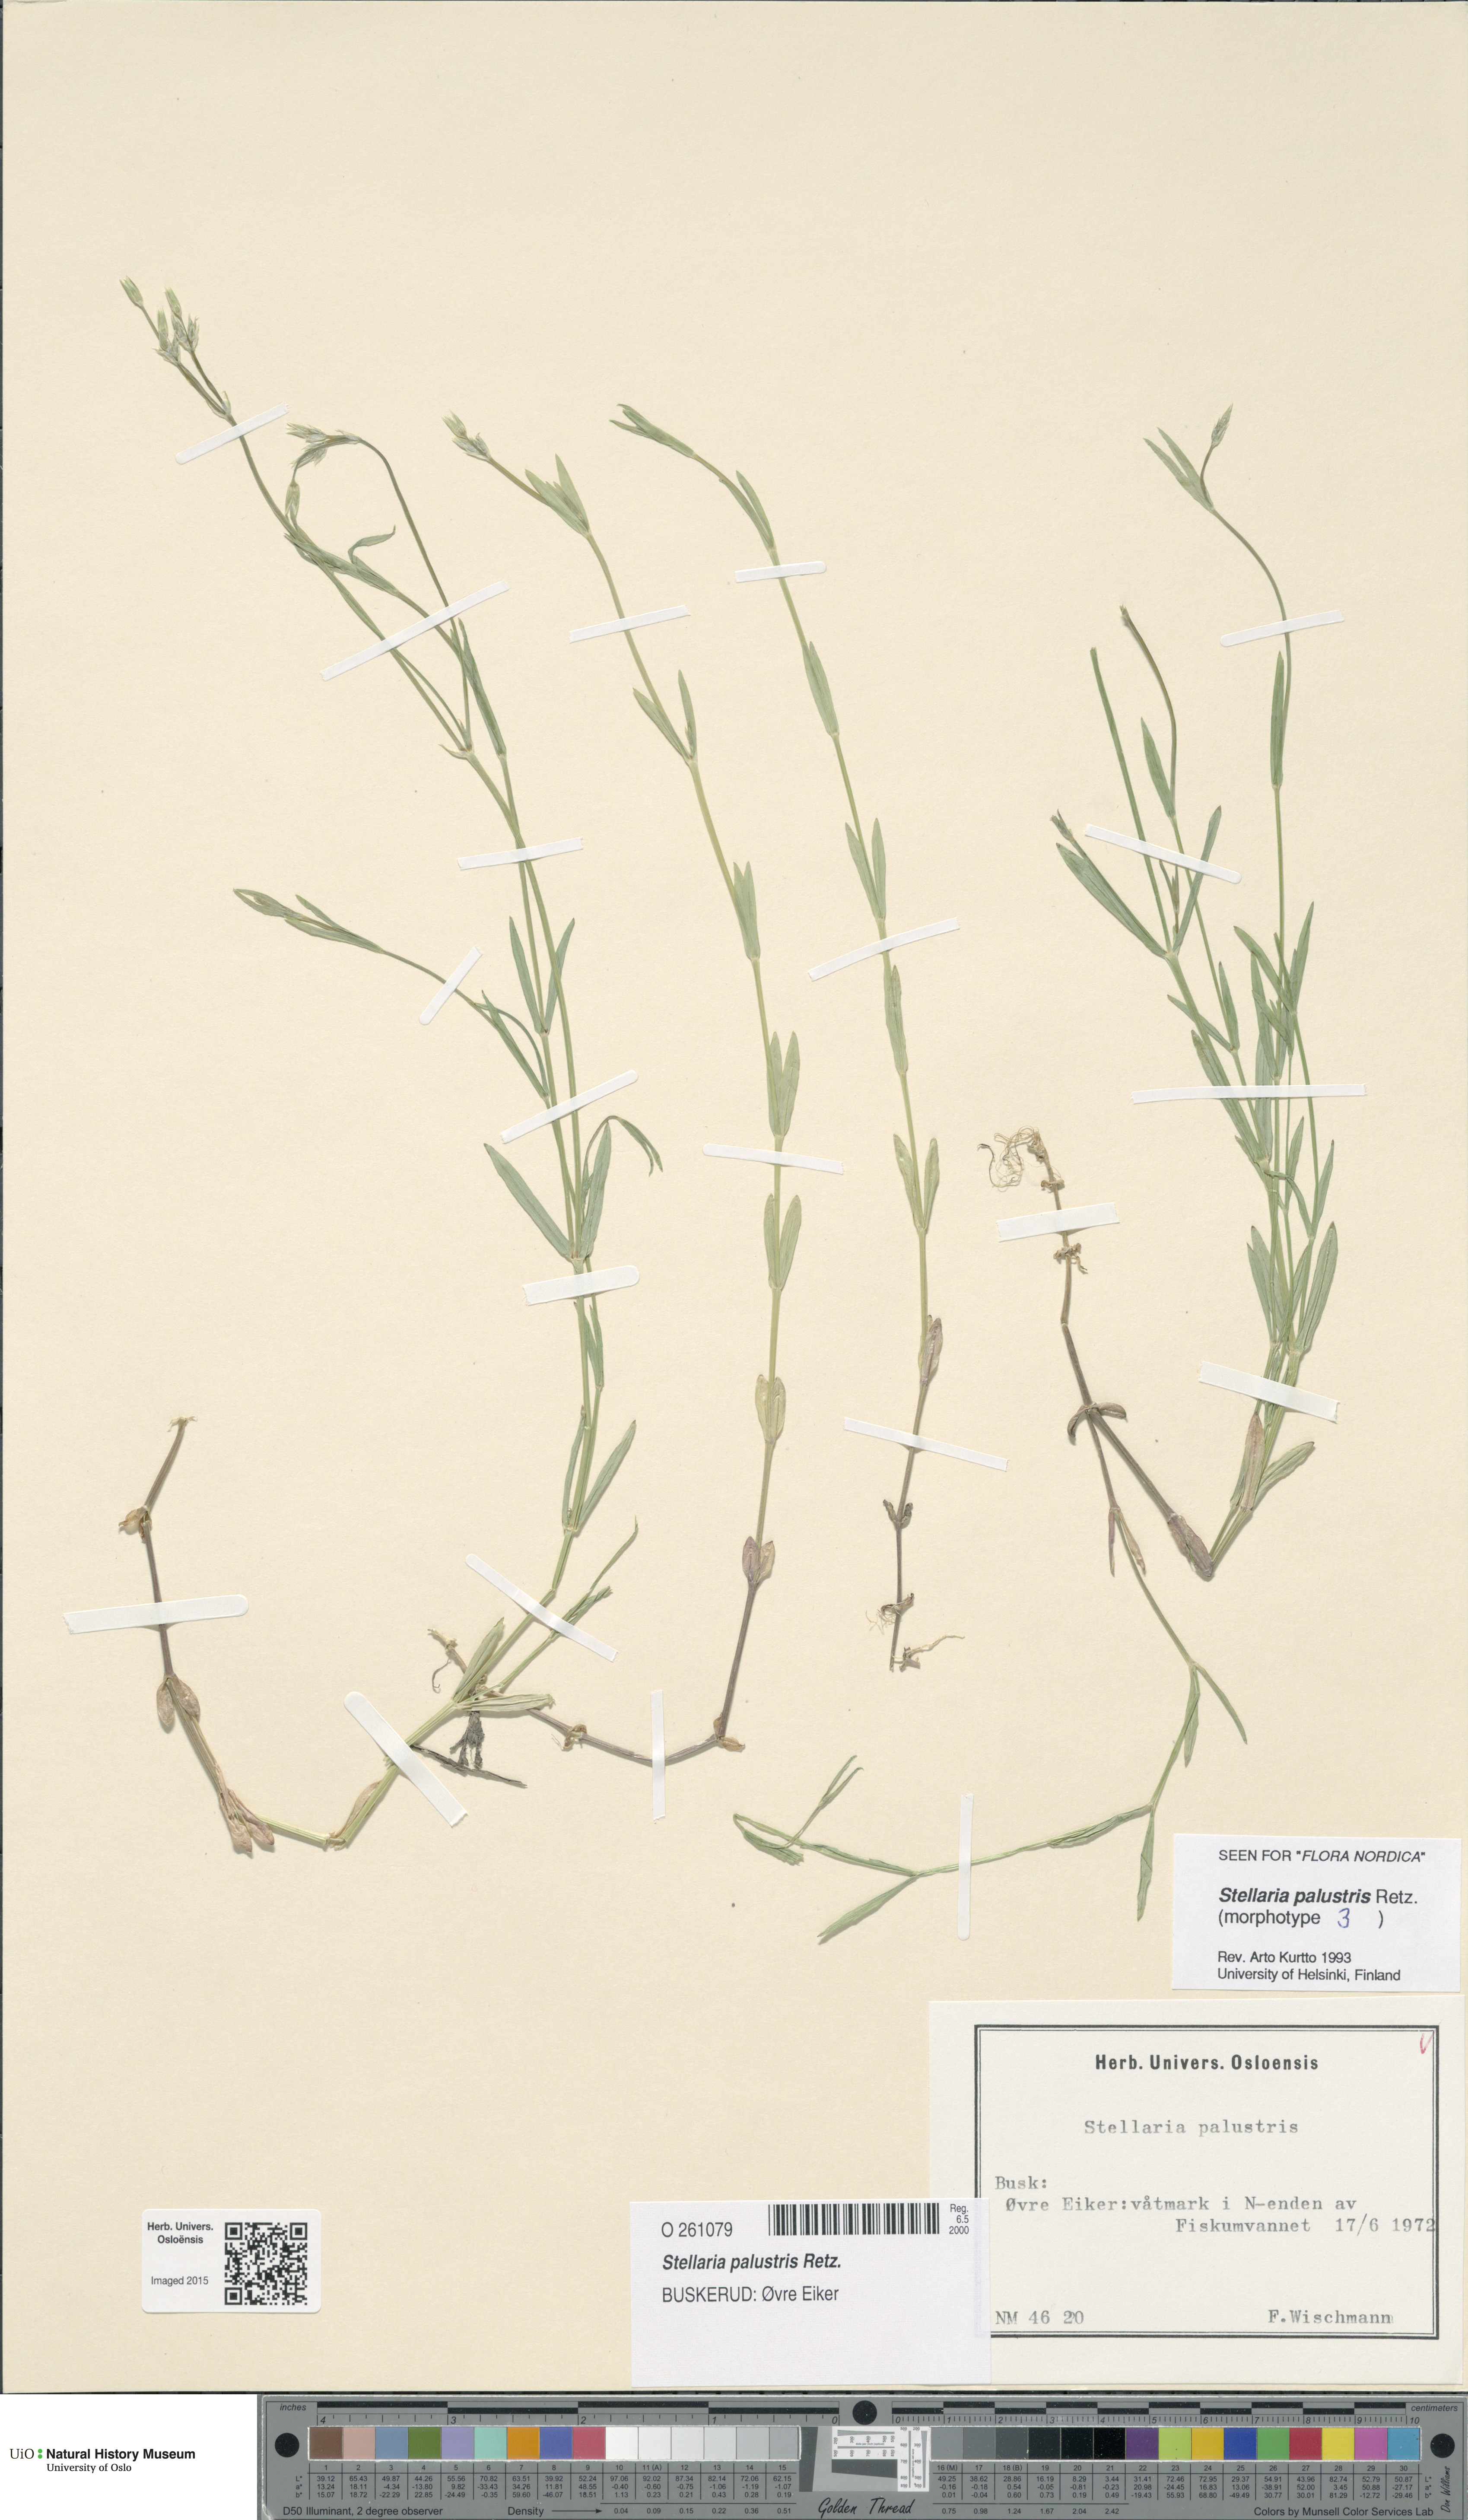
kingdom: Plantae
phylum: Tracheophyta
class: Magnoliopsida
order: Caryophyllales
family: Caryophyllaceae
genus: Stellaria
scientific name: Stellaria palustris
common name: Marsh stitchwort
